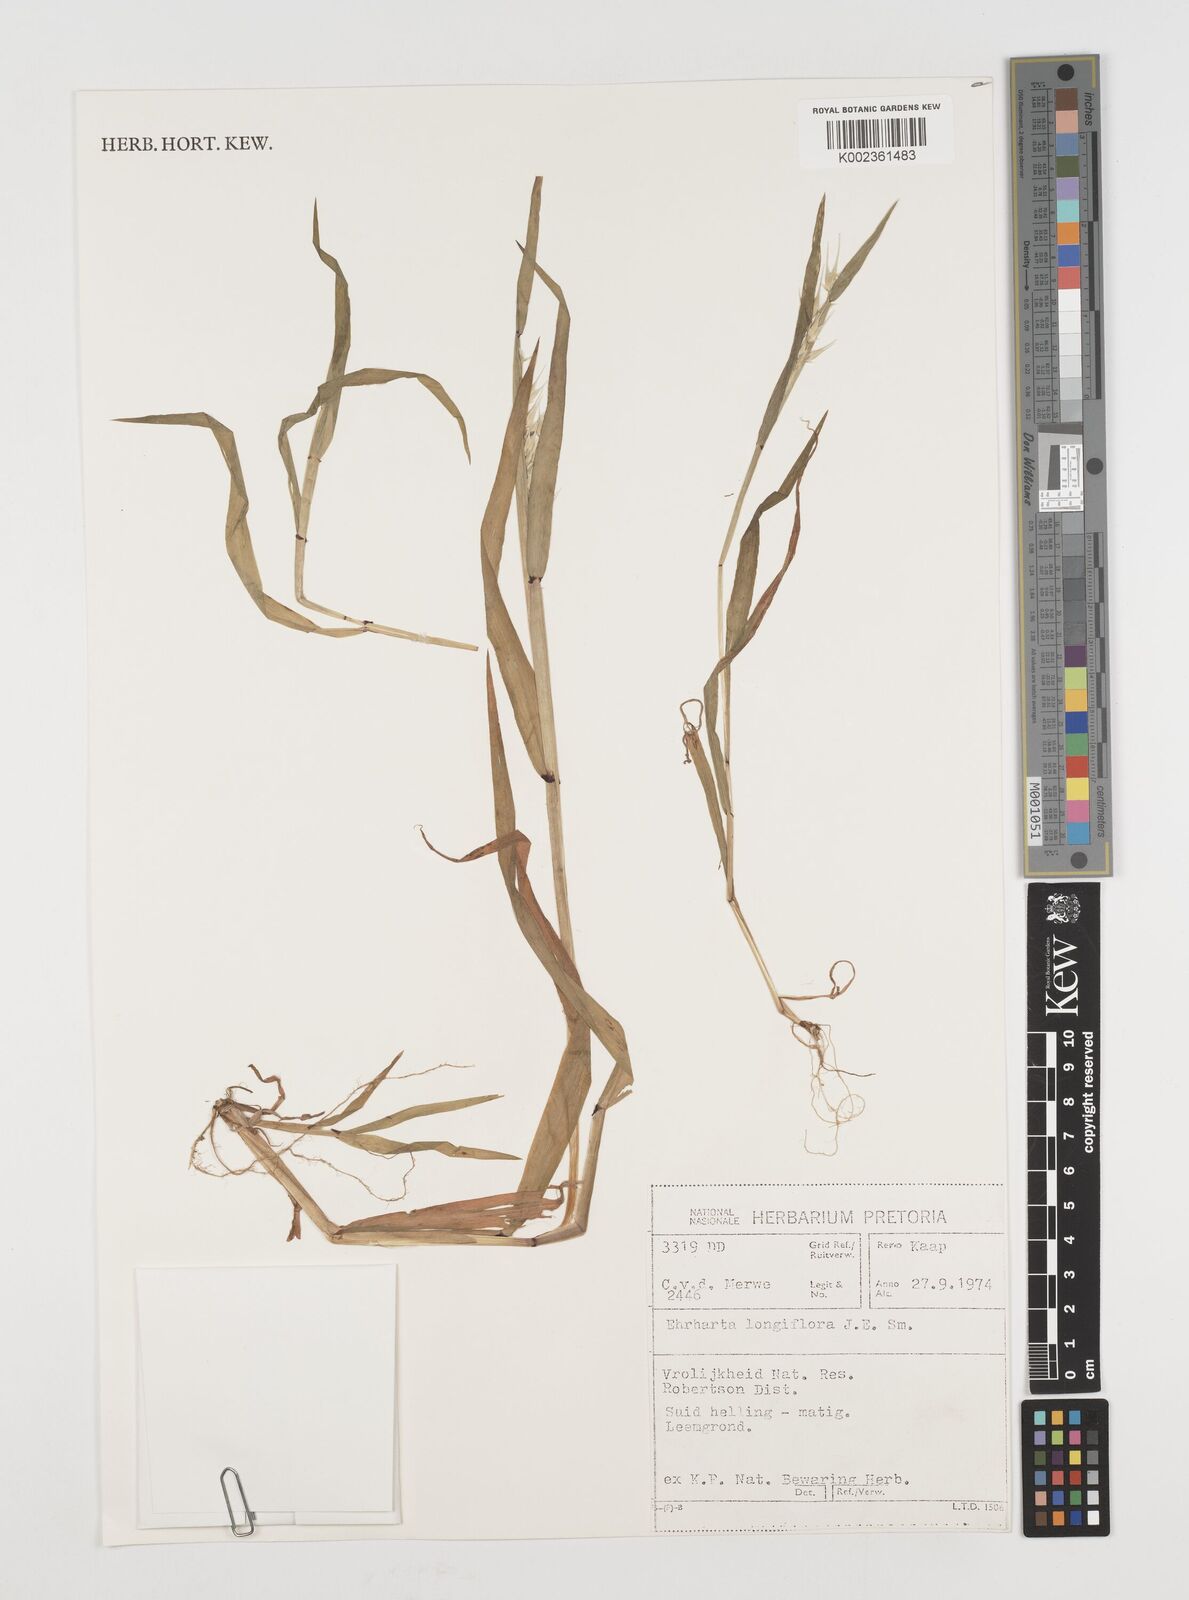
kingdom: Plantae
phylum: Tracheophyta
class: Liliopsida
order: Poales
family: Poaceae
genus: Ehrharta
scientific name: Ehrharta longiflora
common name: Longflowered veldtgrass
